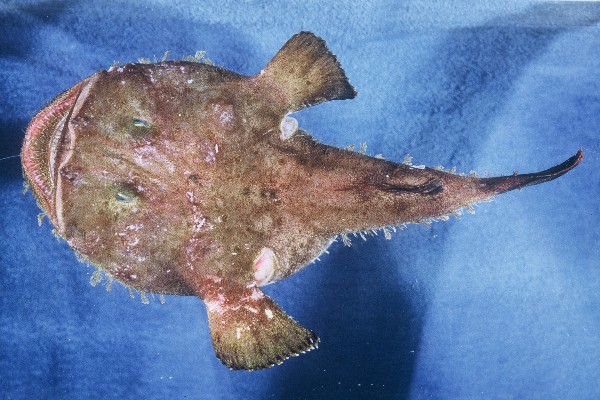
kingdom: Animalia
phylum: Chordata
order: Lophiiformes
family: Lophiidae
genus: Lophius
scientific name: Lophius vomerinus
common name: Devil anglerfish
